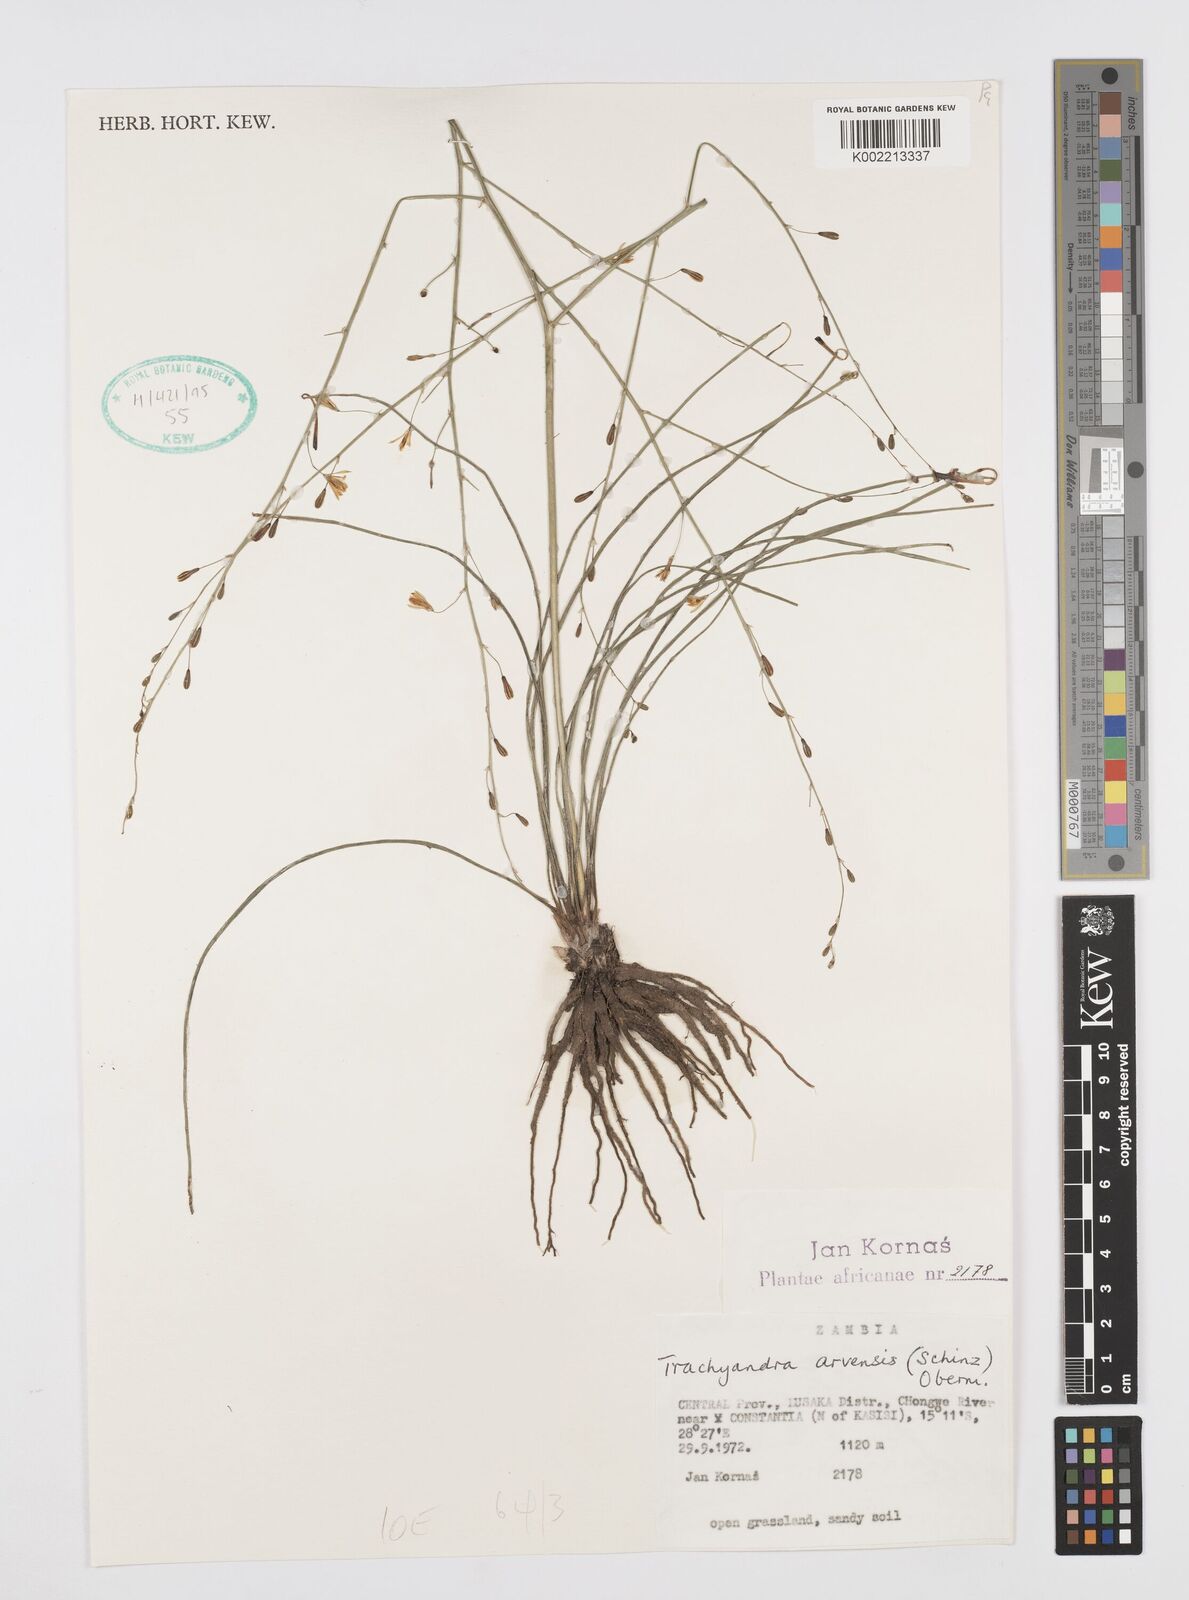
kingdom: Plantae
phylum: Tracheophyta
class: Liliopsida
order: Asparagales
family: Asphodelaceae
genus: Trachyandra
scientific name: Trachyandra arvensis
